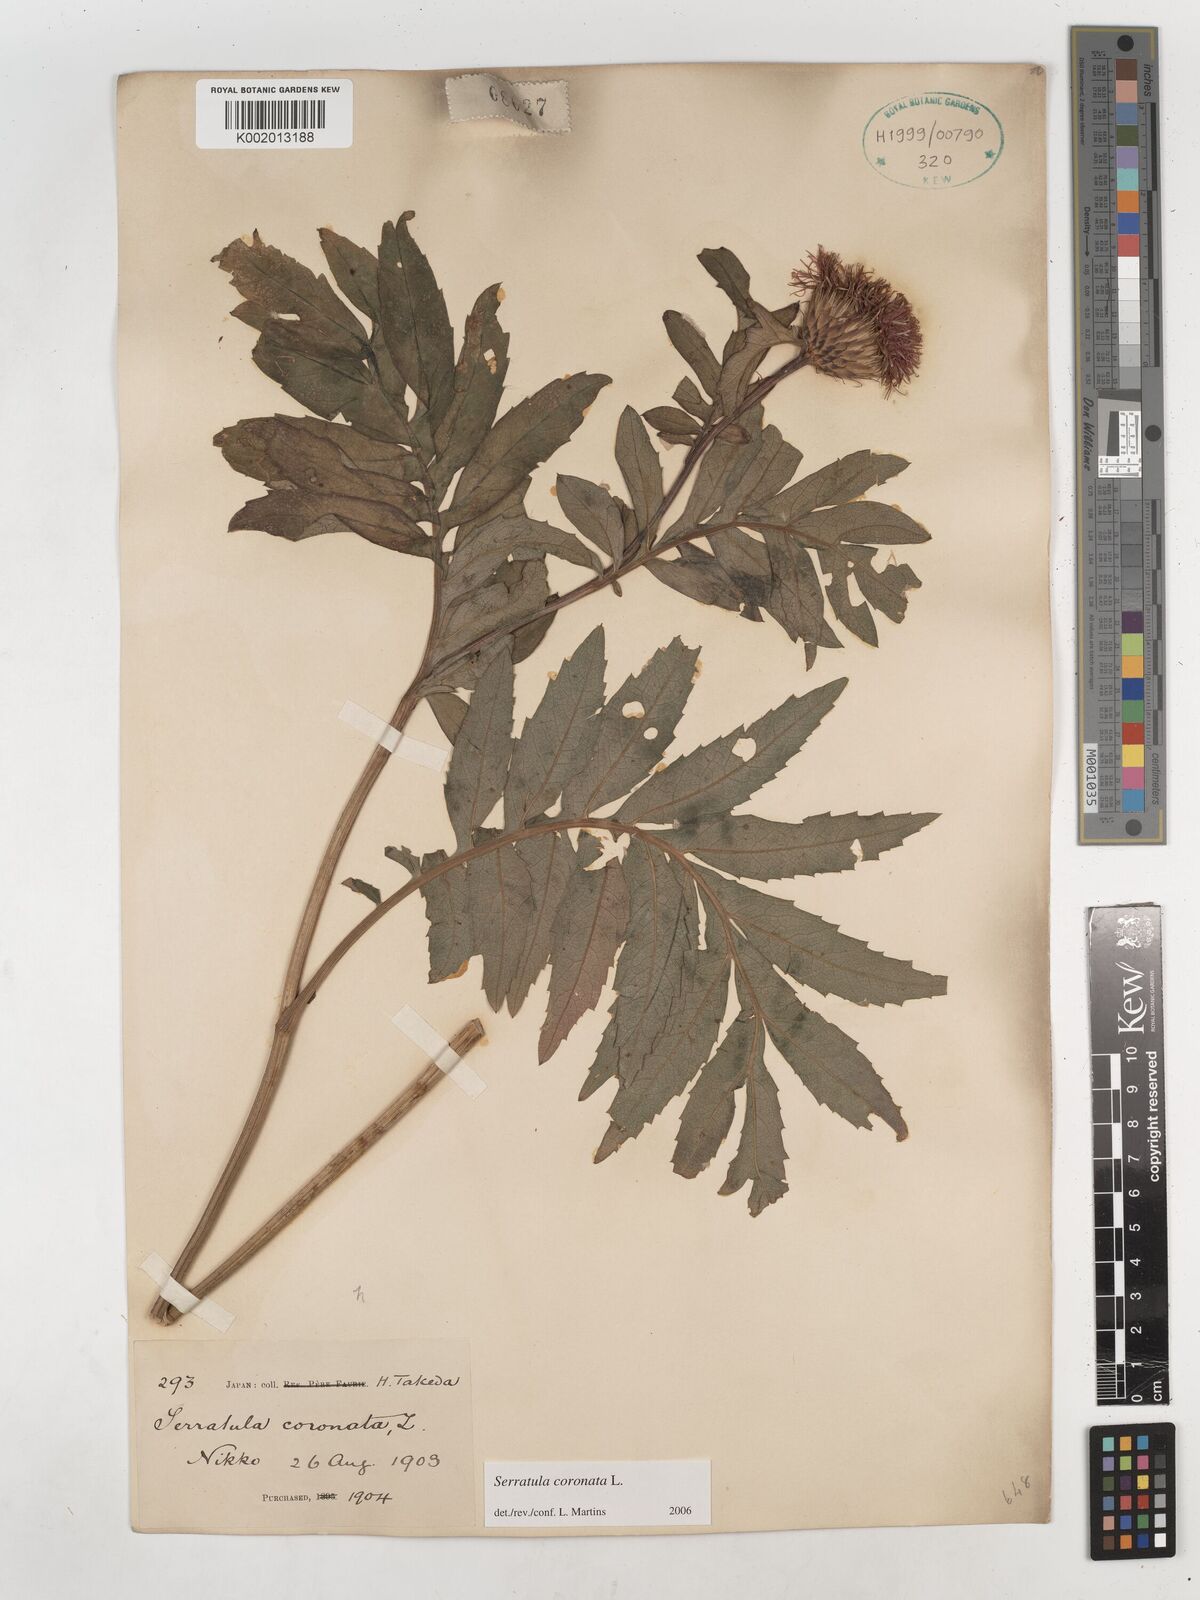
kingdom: Plantae
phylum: Tracheophyta
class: Magnoliopsida
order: Asterales
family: Asteraceae
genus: Serratula
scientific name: Serratula coronata
